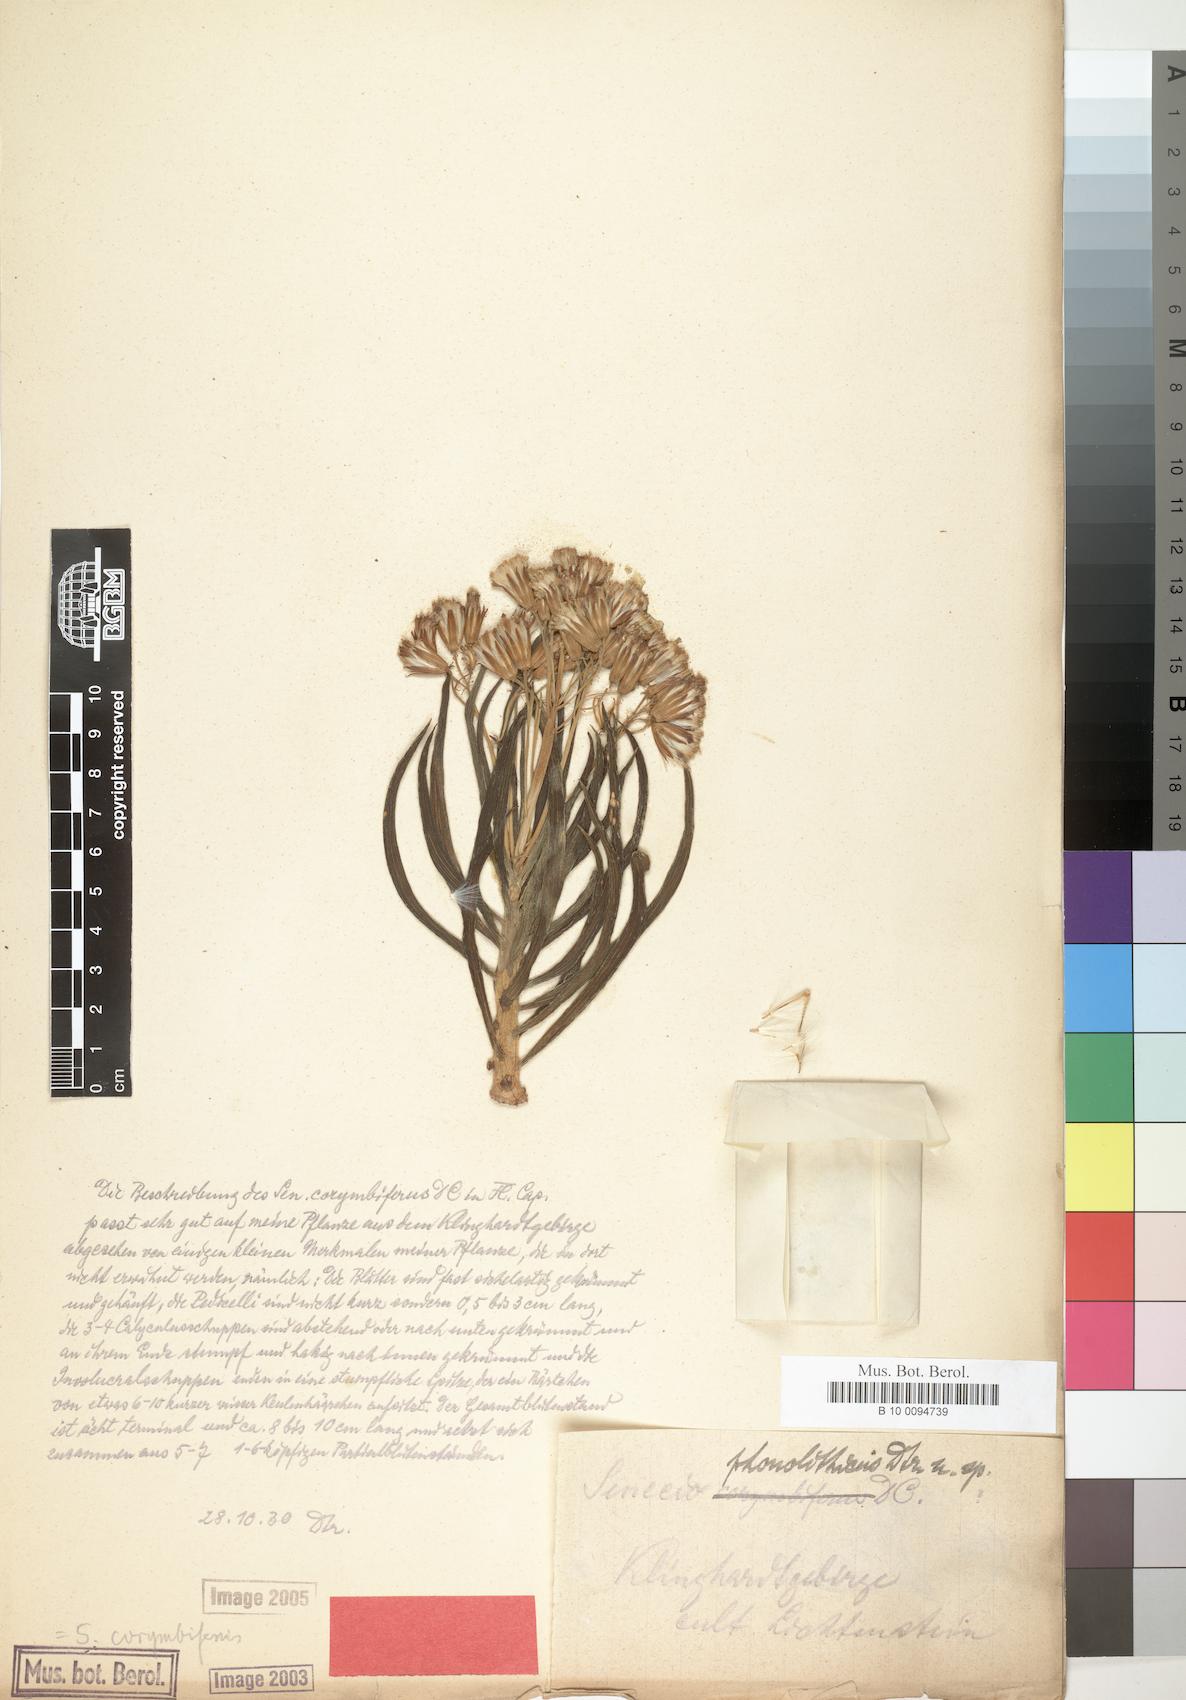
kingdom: Plantae
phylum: Tracheophyta
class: Magnoliopsida
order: Asterales
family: Asteraceae
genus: Curio
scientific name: Curio corymbifer
